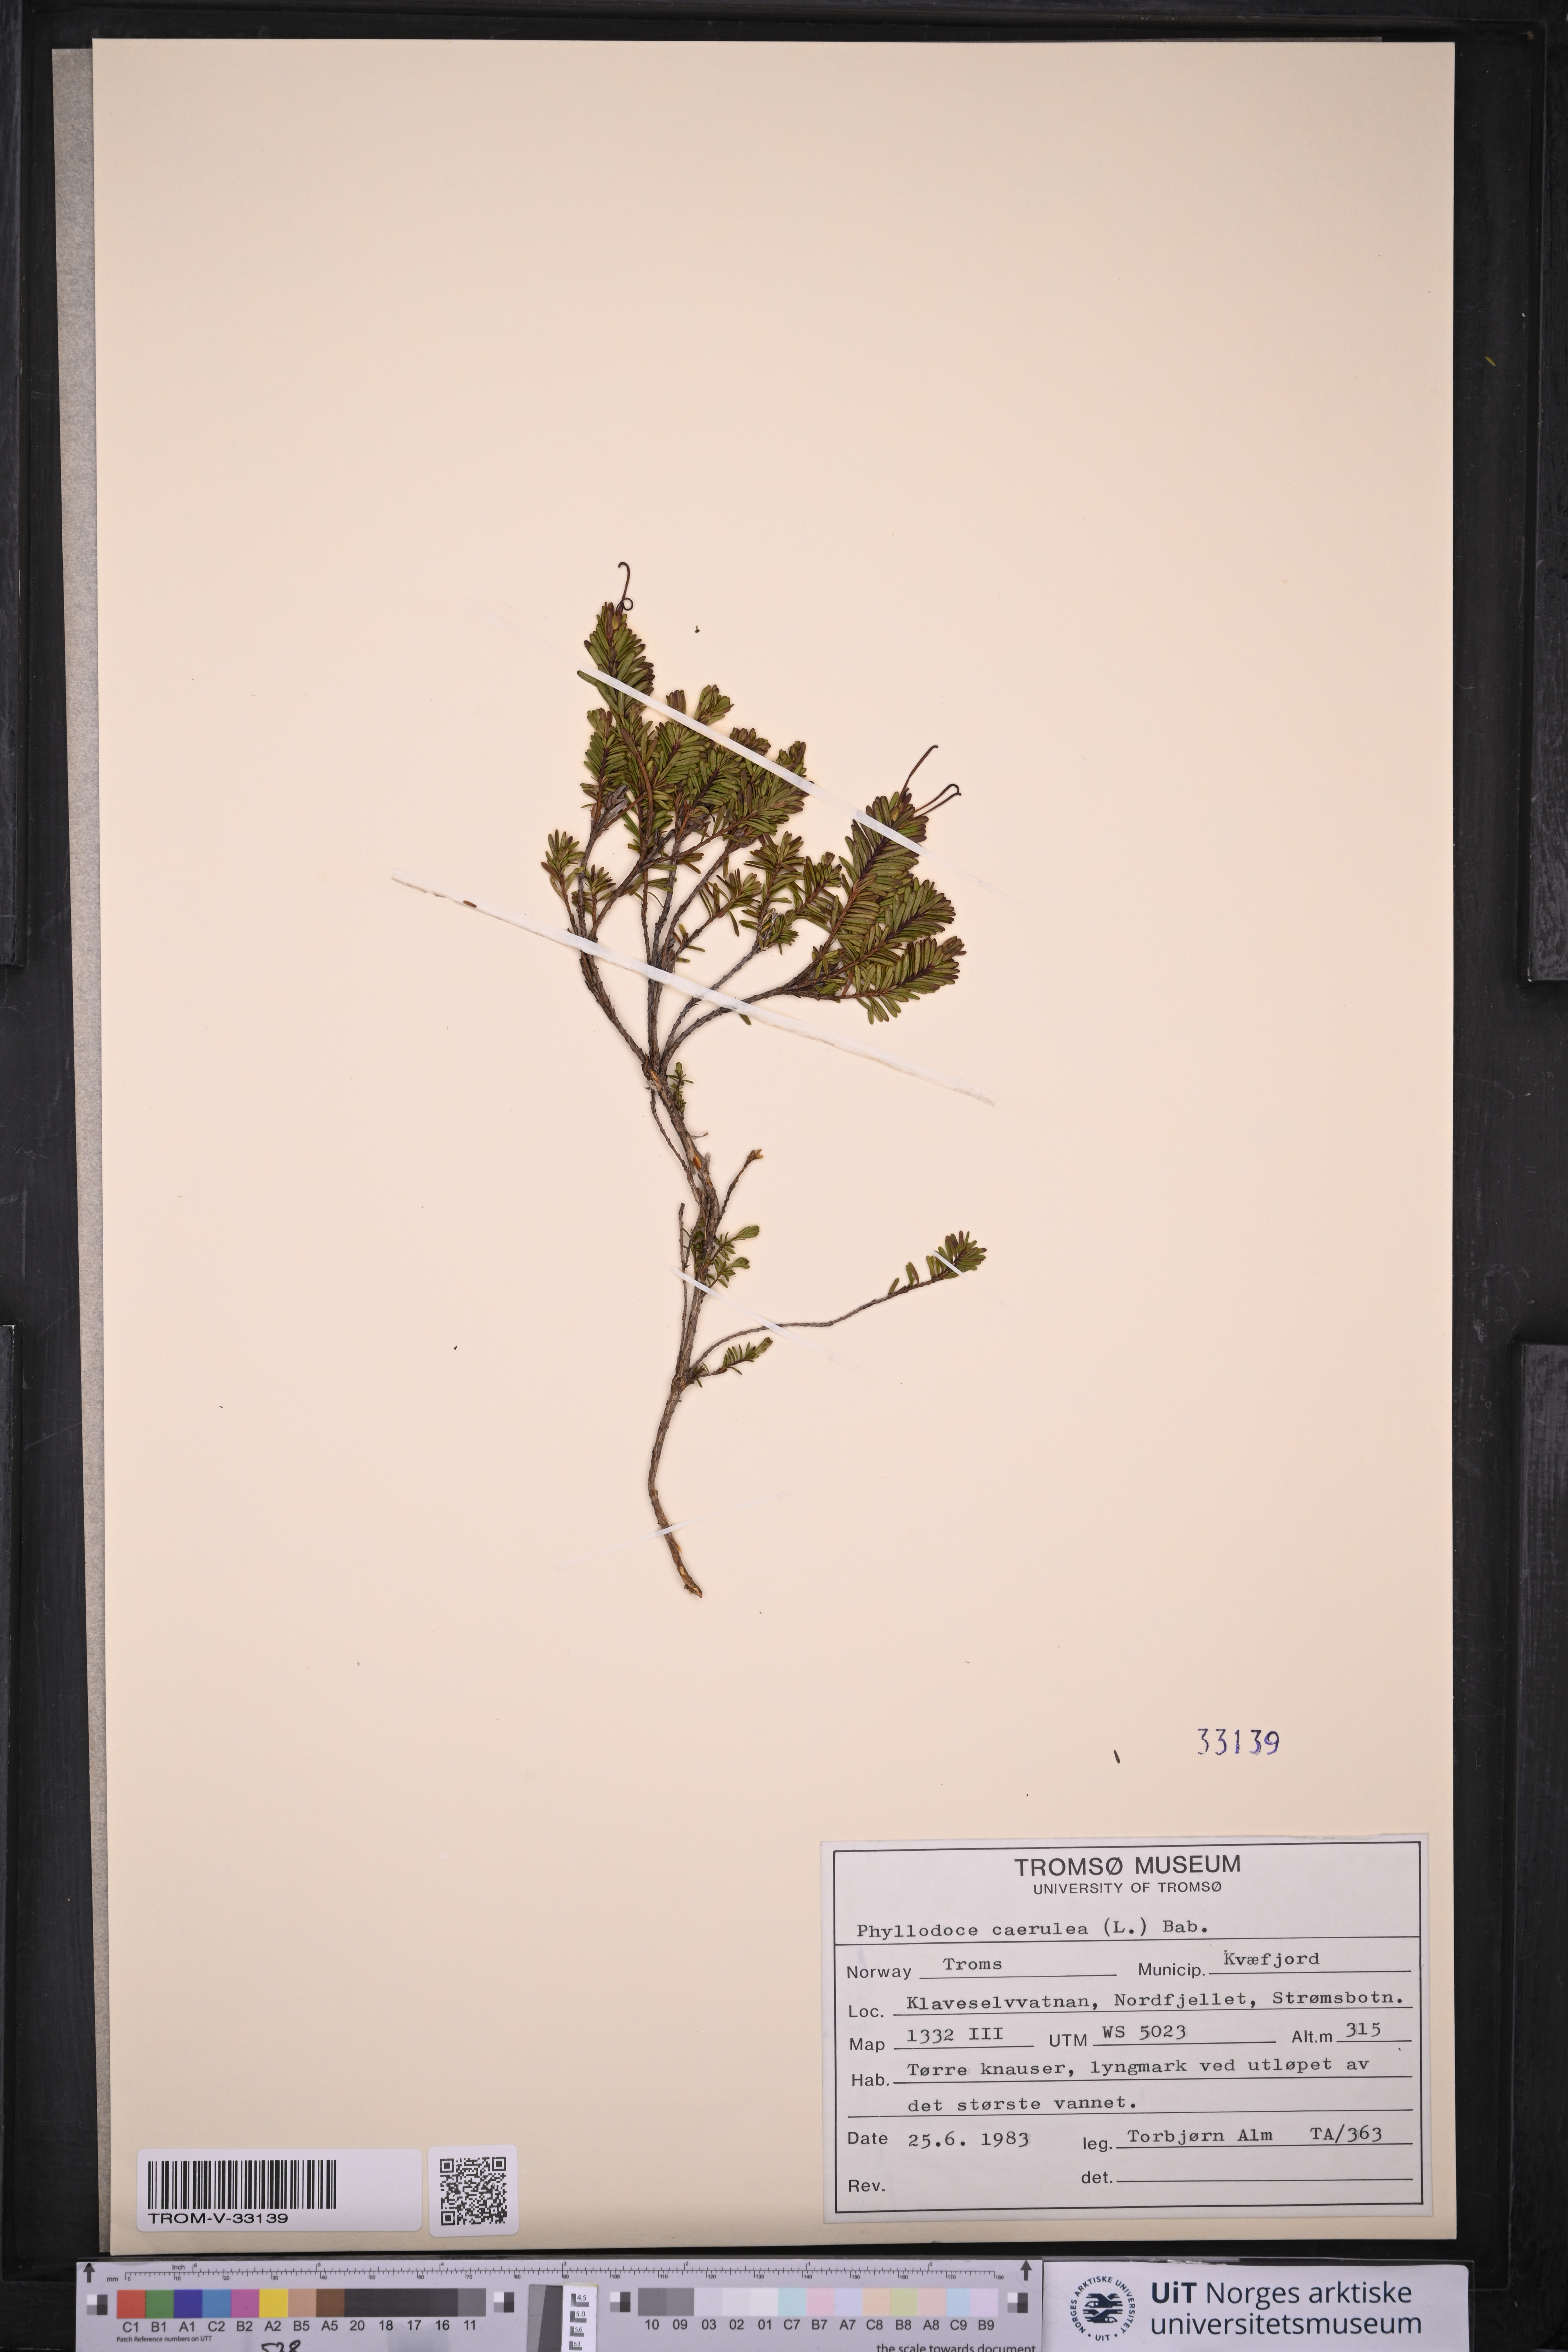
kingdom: Plantae
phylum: Tracheophyta
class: Magnoliopsida
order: Ericales
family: Ericaceae
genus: Phyllodoce
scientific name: Phyllodoce caerulea
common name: Blue heath
